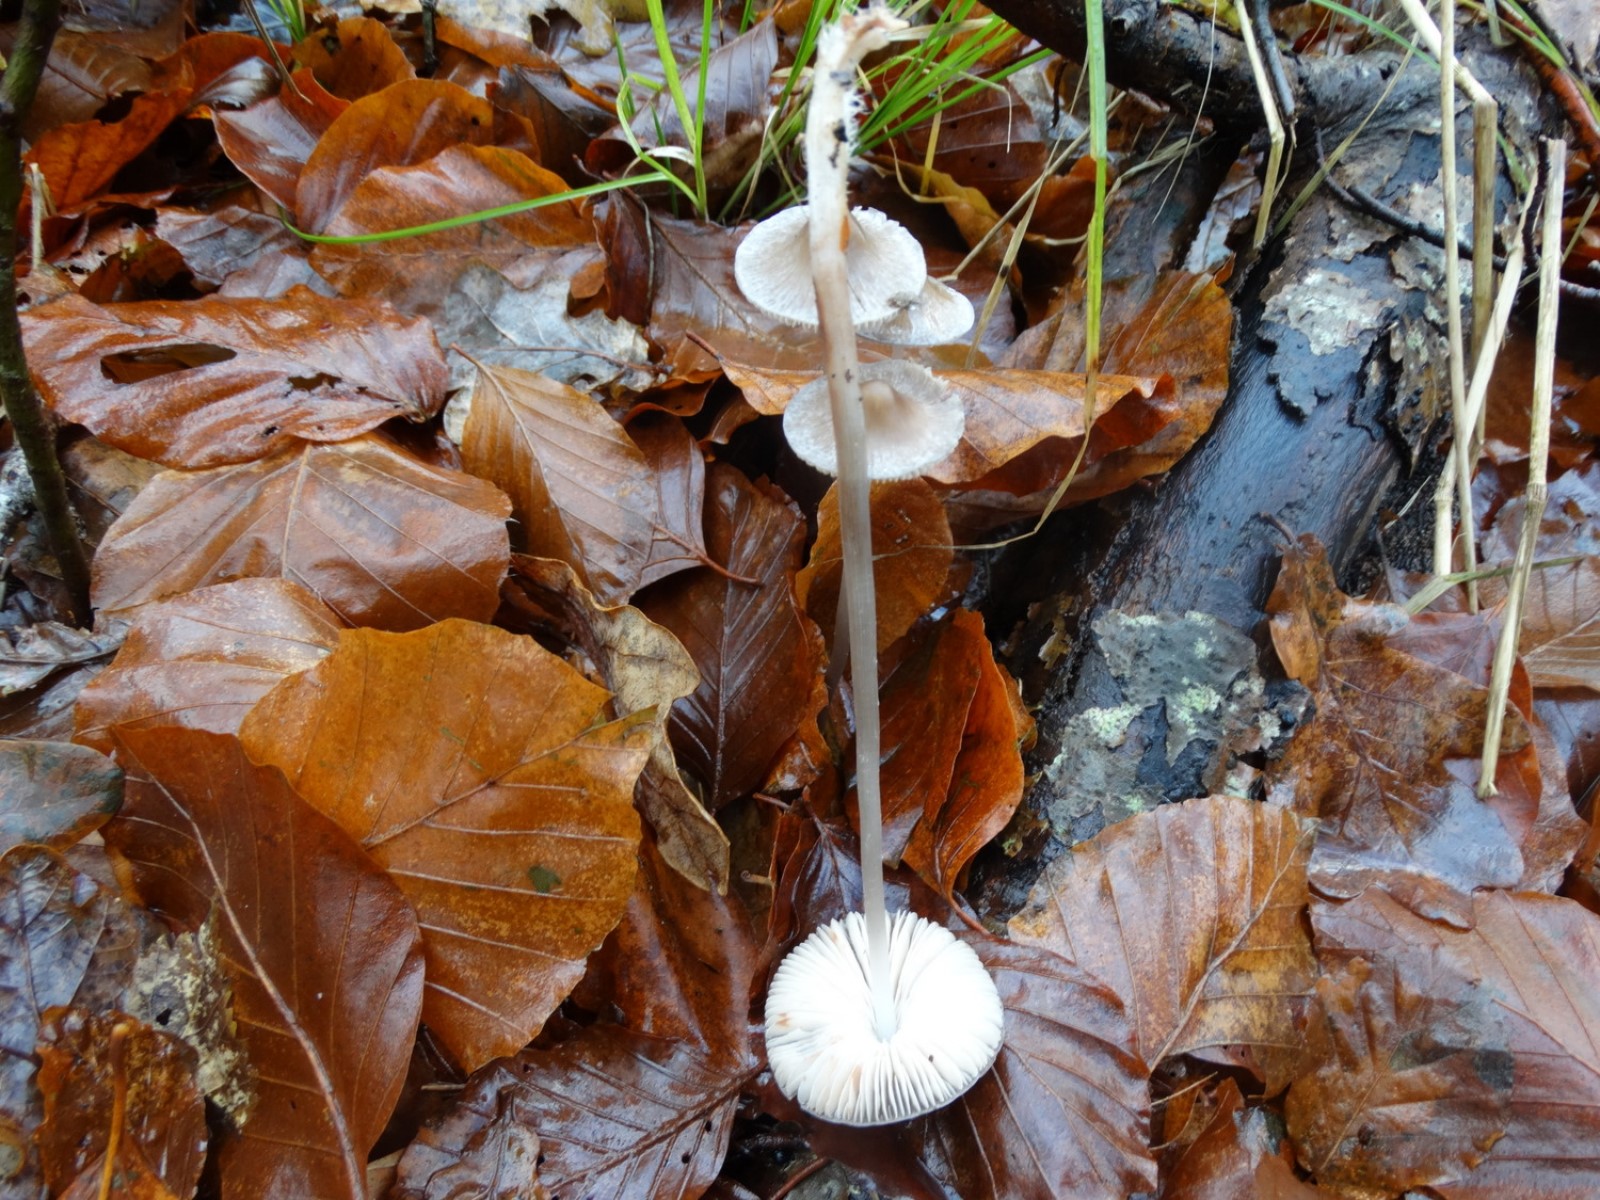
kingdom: Fungi
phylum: Basidiomycota
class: Agaricomycetes
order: Agaricales
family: Mycenaceae
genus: Mycena
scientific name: Mycena polygramma
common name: mangestribet huesvamp
